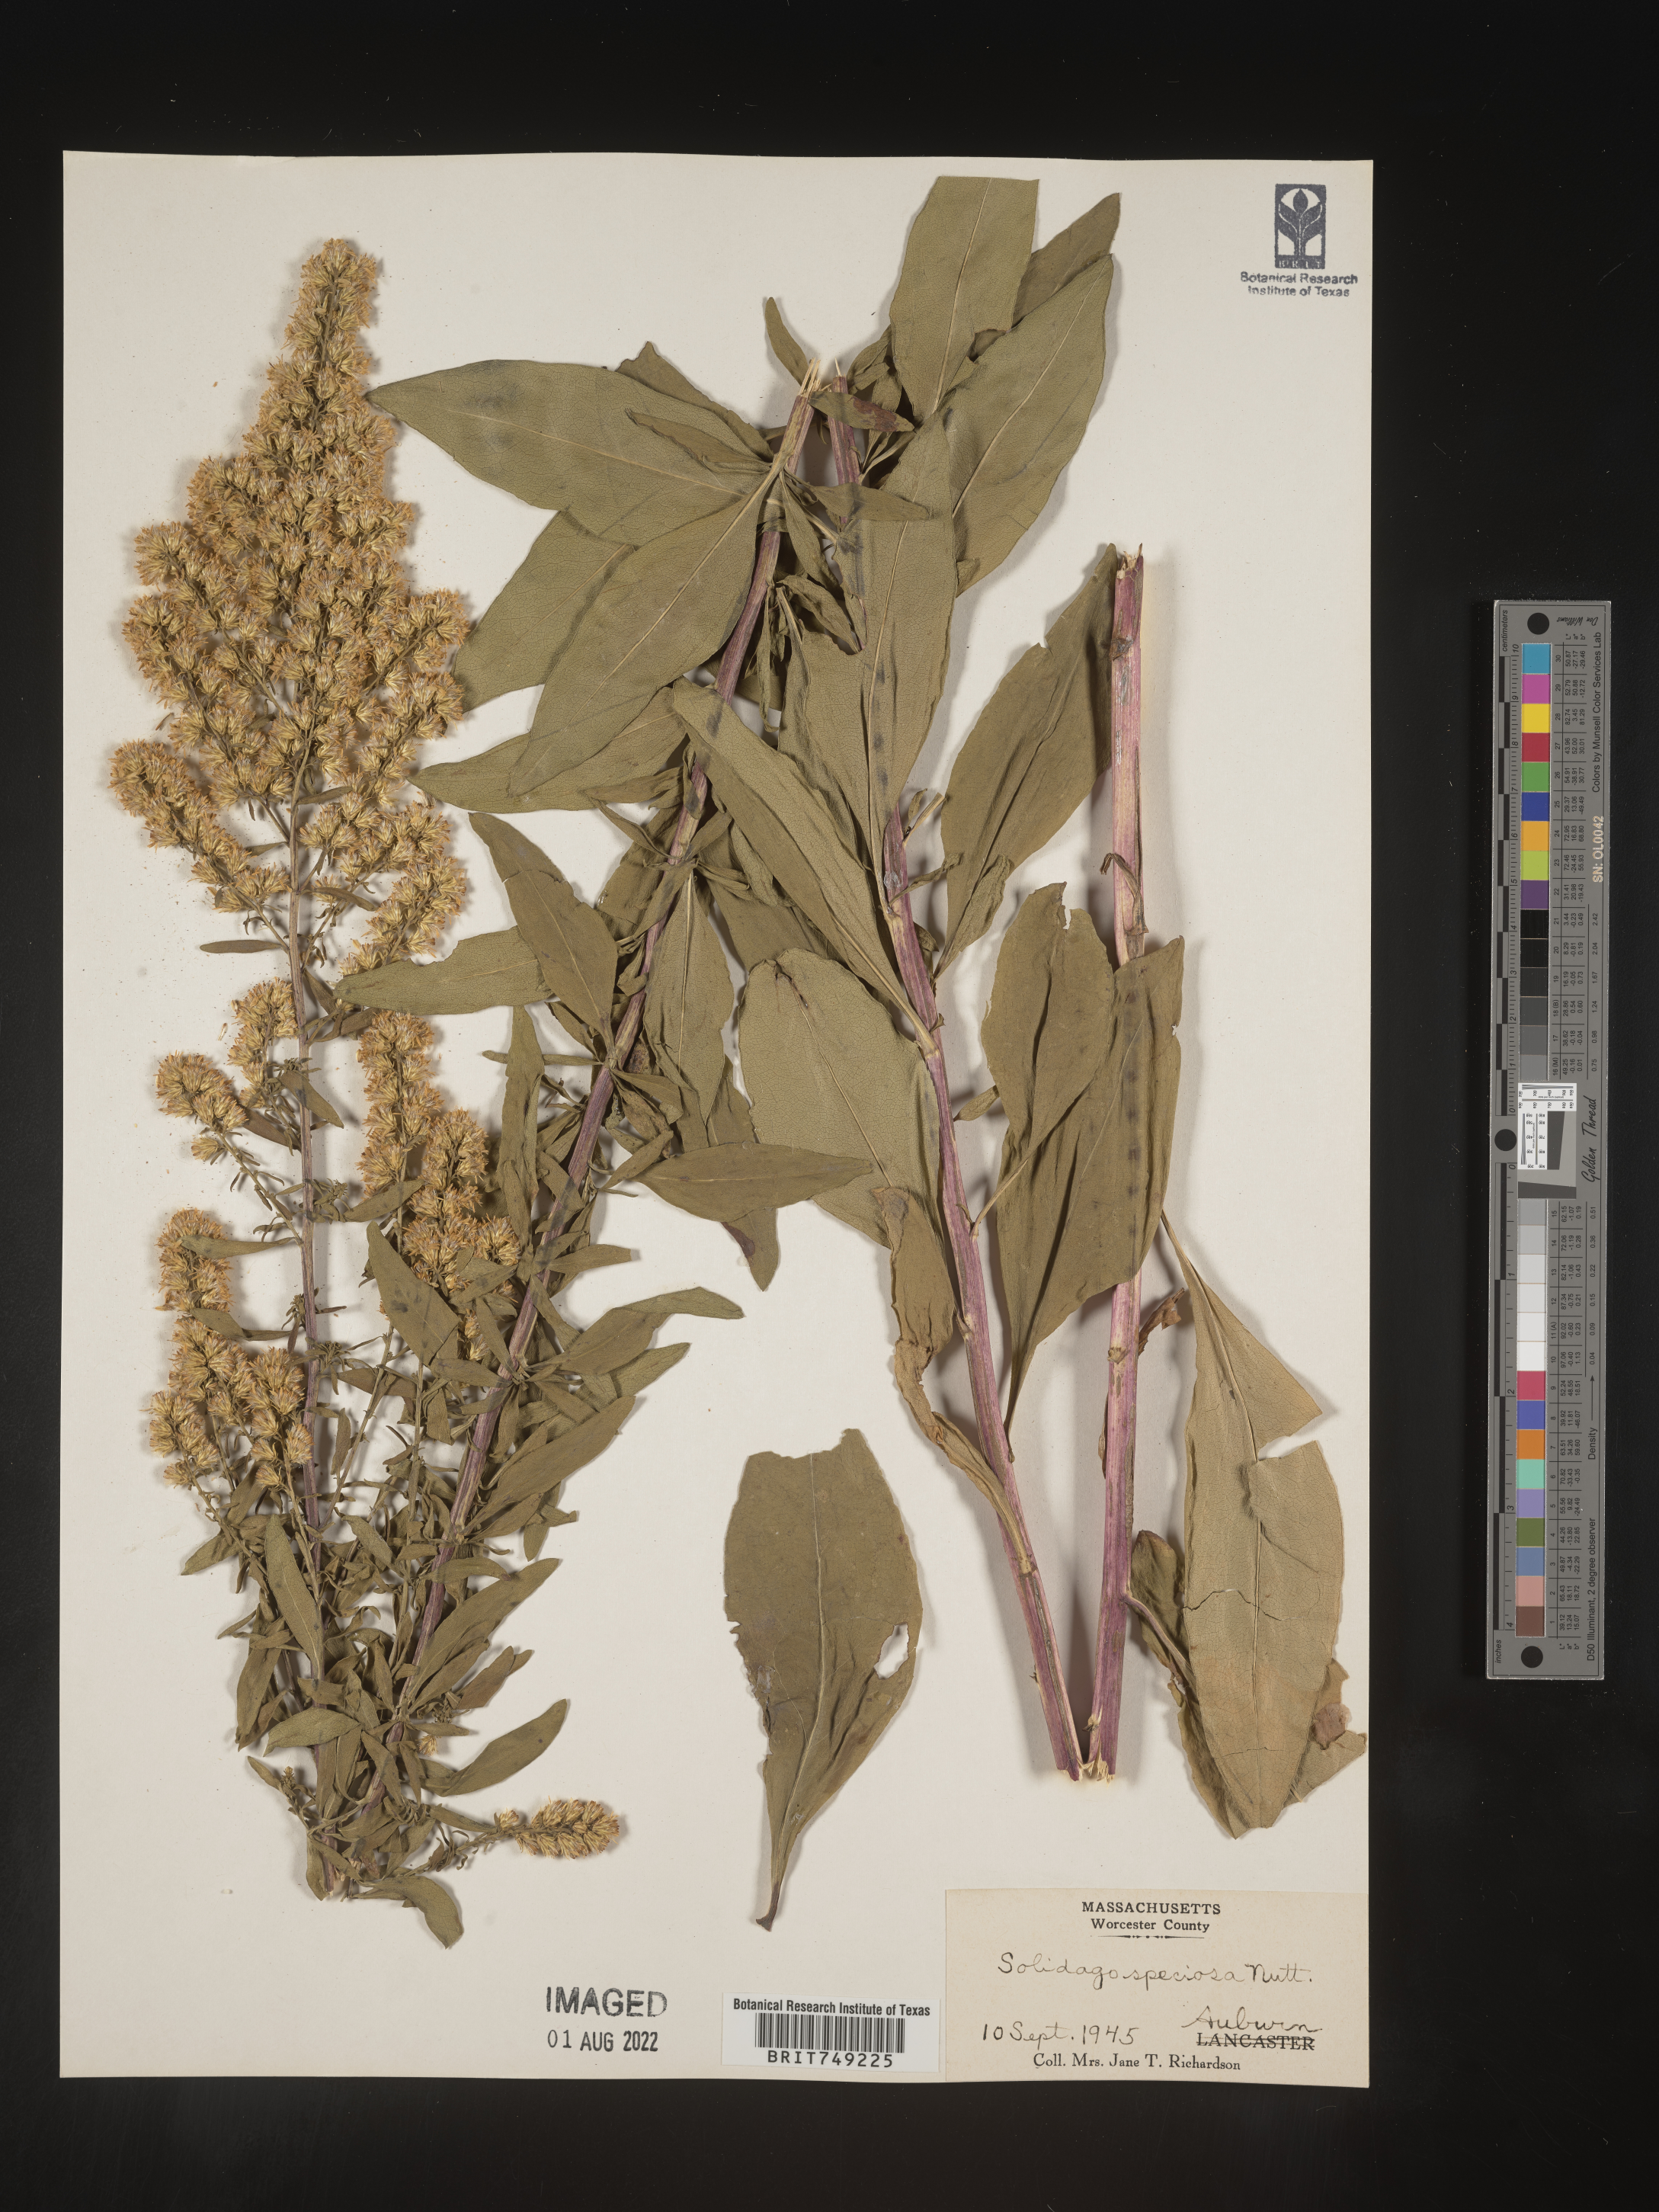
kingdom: Plantae
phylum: Tracheophyta
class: Magnoliopsida
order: Asterales
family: Asteraceae
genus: Solidago
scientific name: Solidago speciosa
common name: Showy goldenrod
